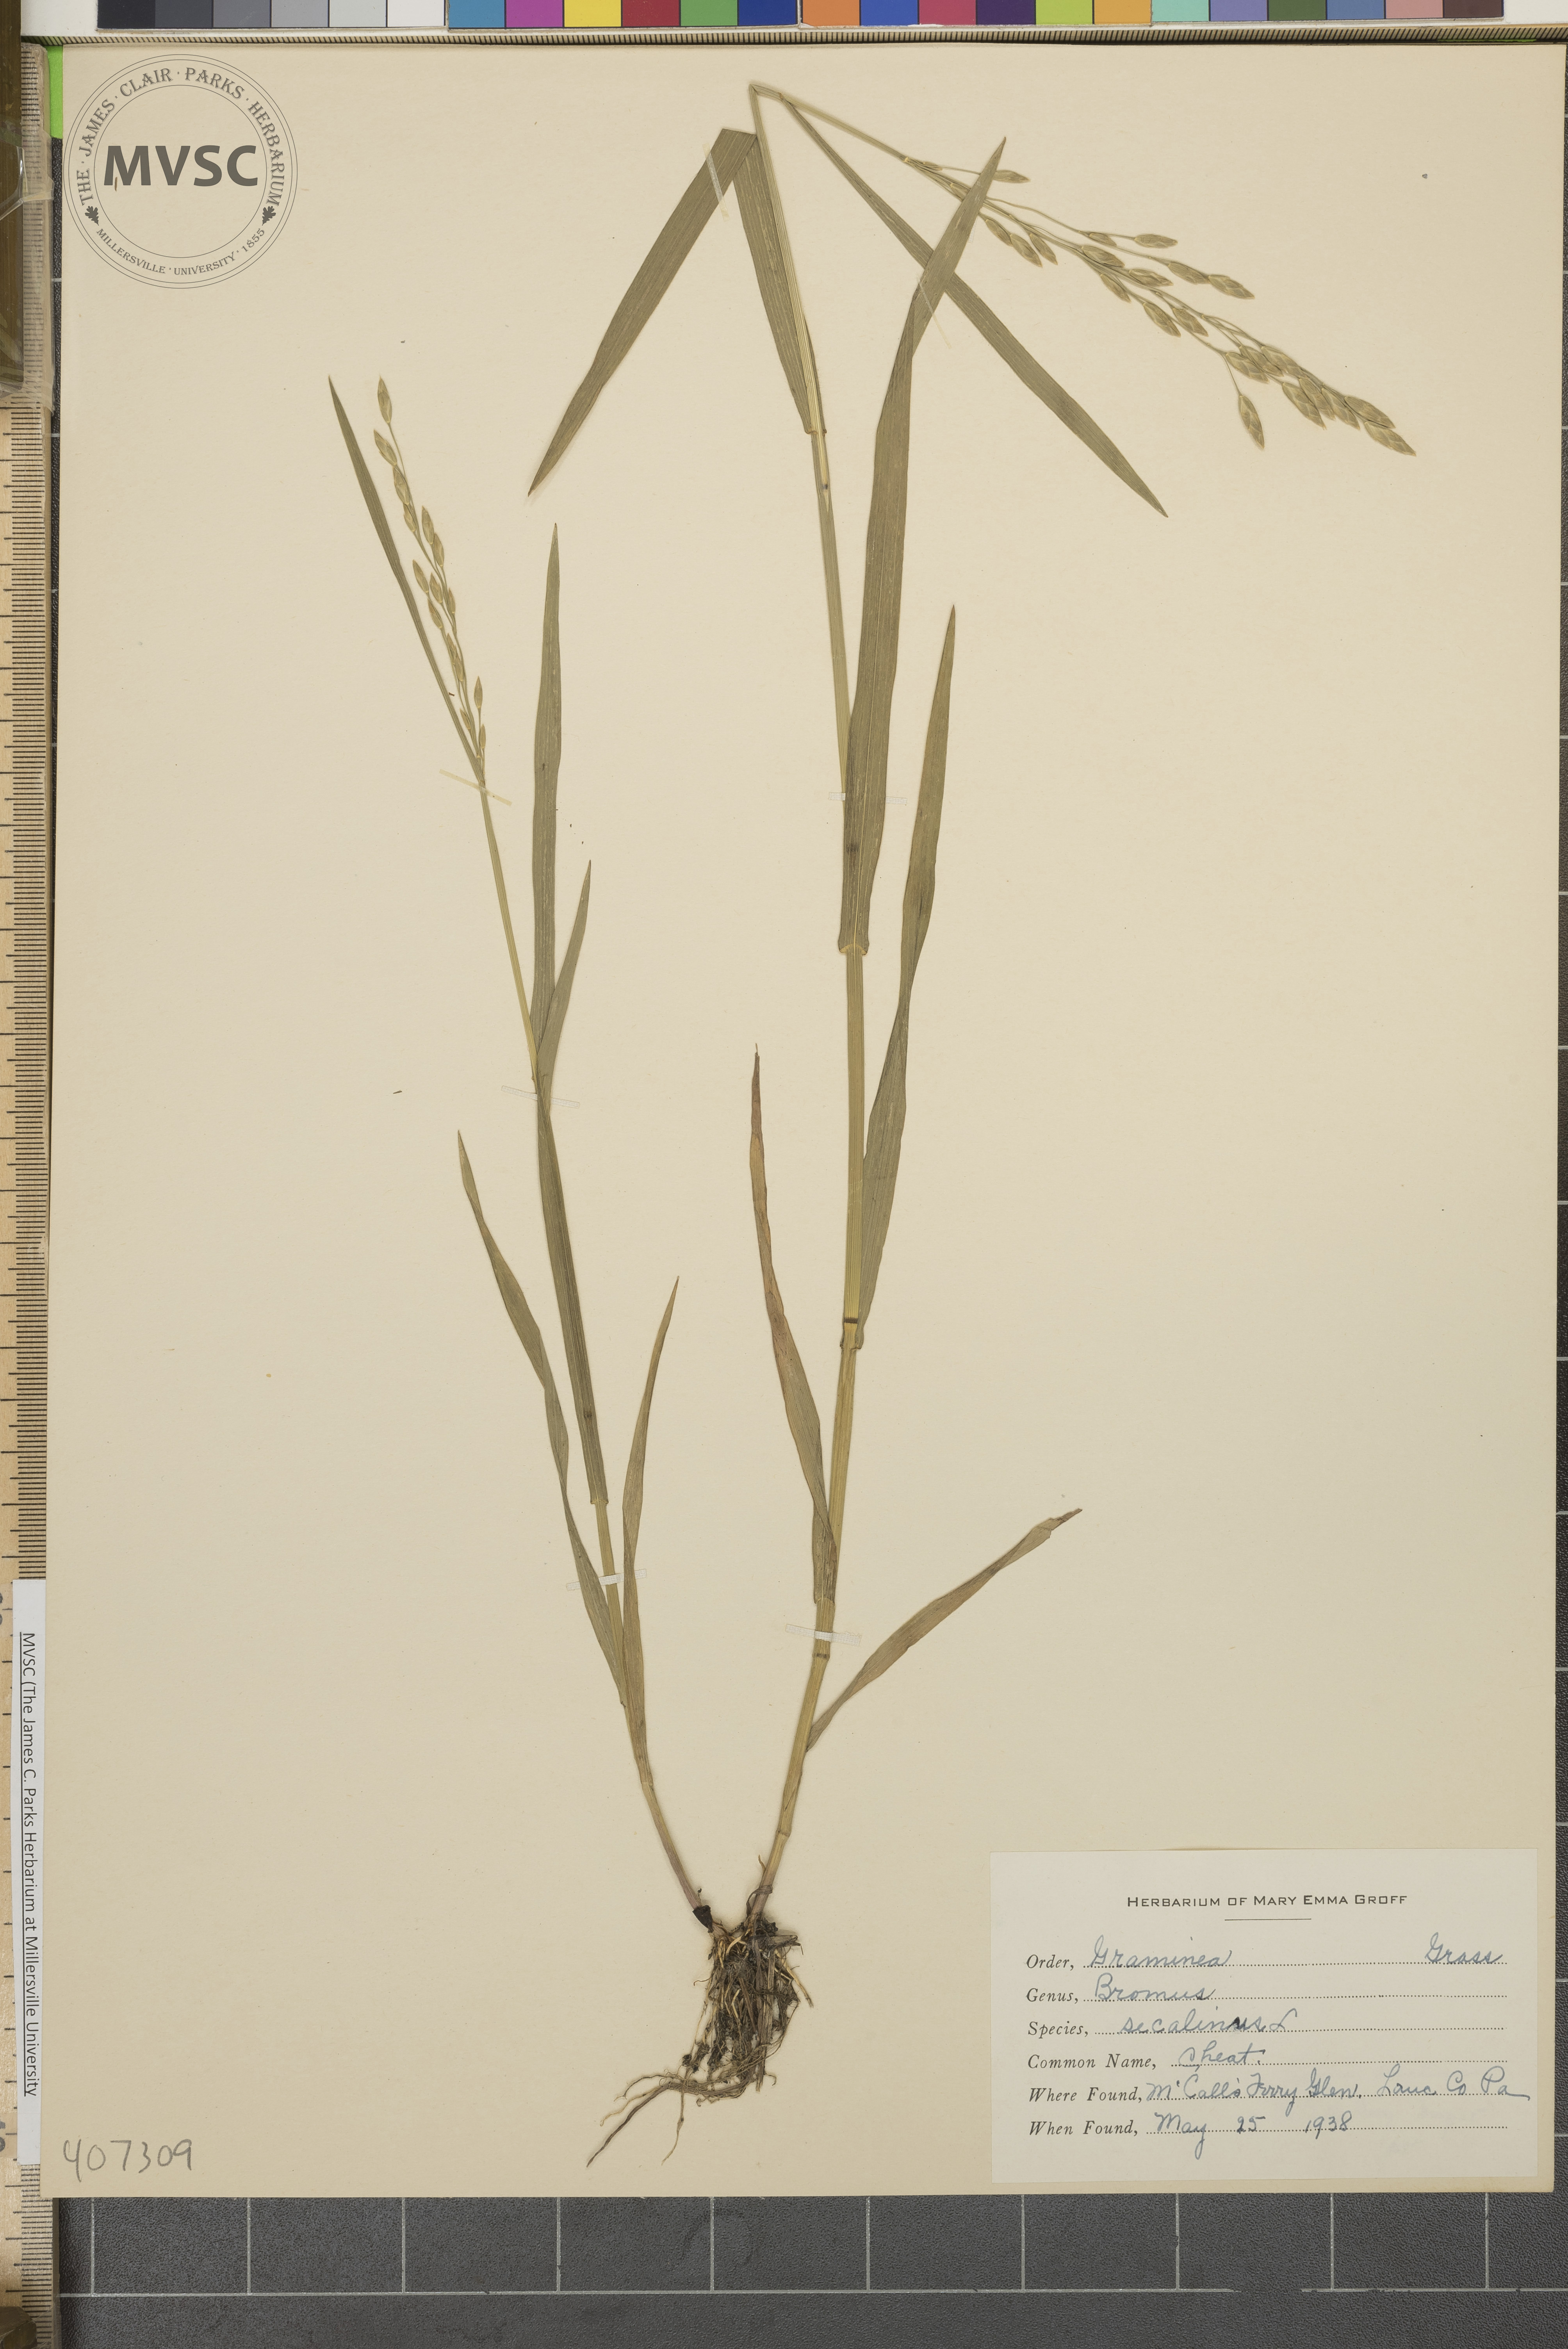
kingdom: Plantae
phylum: Tracheophyta
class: Liliopsida
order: Poales
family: Poaceae
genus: Bromus
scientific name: Bromus secalinus
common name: Rye brome
